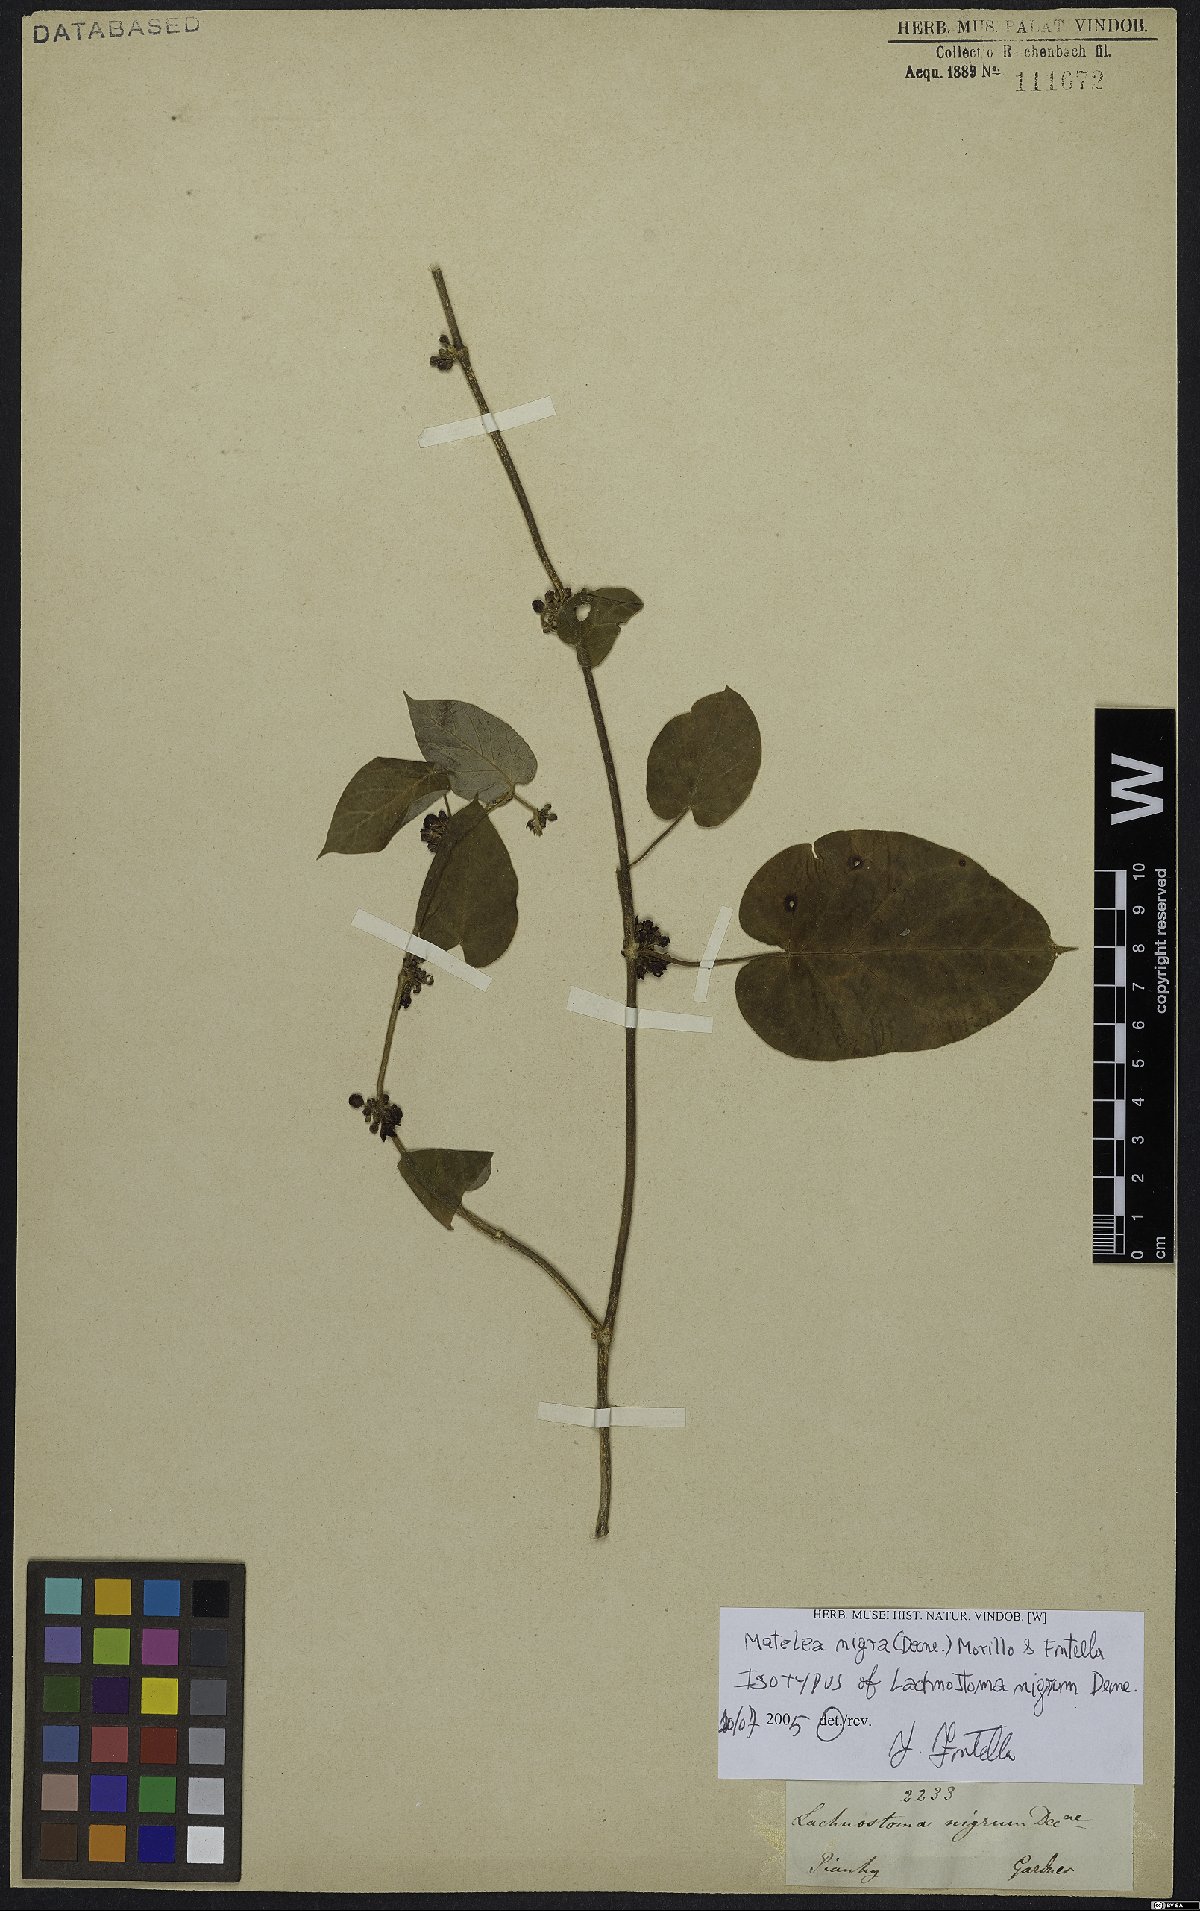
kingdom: Plantae
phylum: Tracheophyta
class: Magnoliopsida
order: Gentianales
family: Apocynaceae
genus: Ibatia
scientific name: Ibatia nigra
